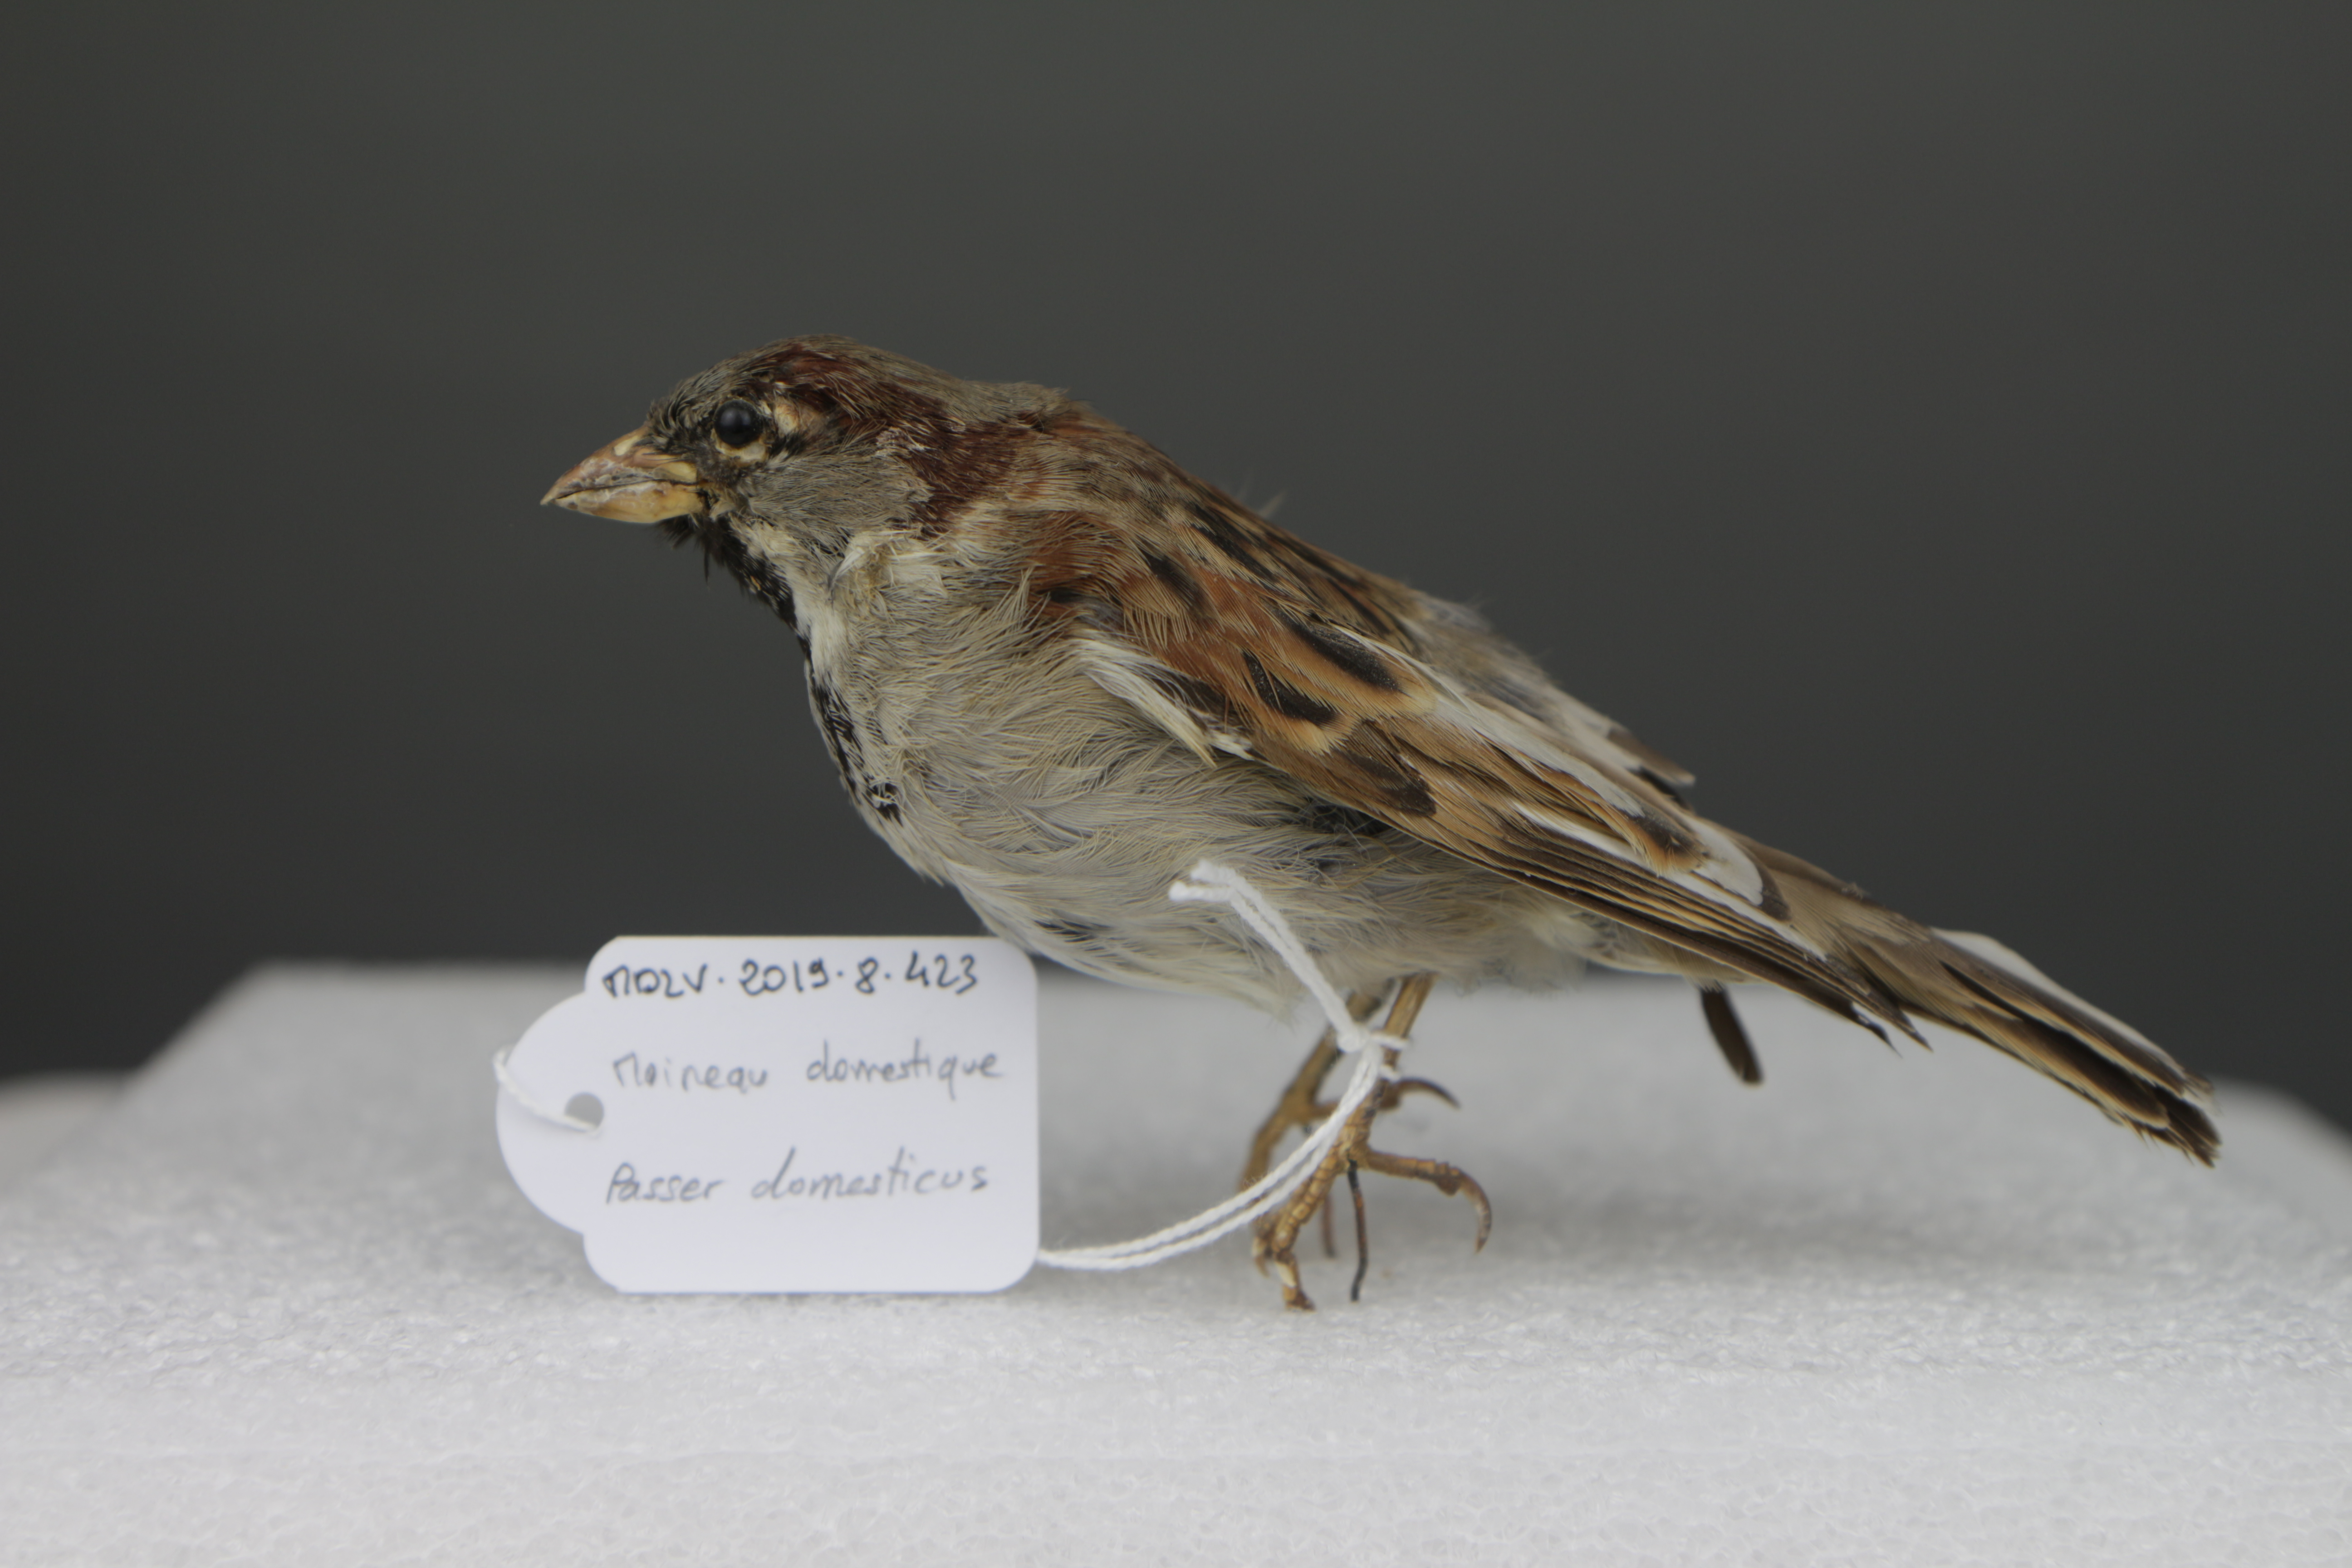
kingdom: Animalia
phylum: Chordata
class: Aves
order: Passeriformes
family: Passeridae
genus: Passer
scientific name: Passer domesticus
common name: House sparrow
